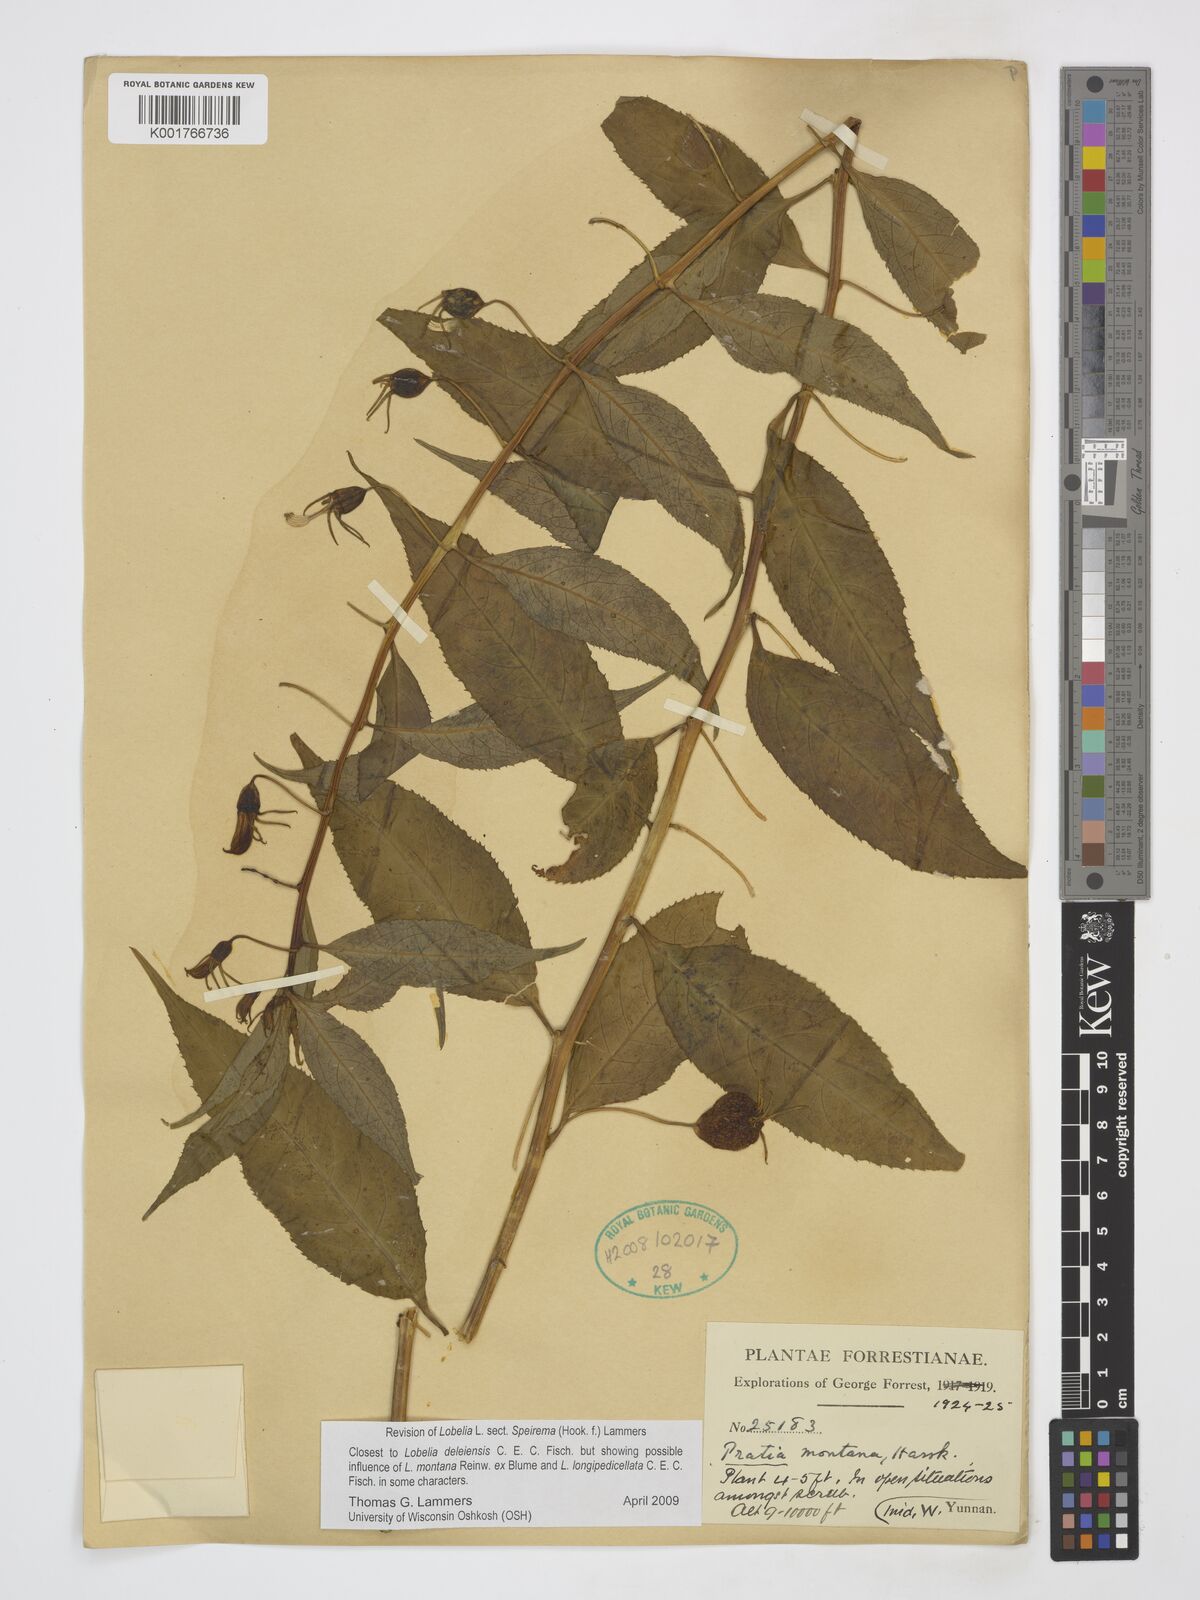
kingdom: Plantae
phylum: Tracheophyta
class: Magnoliopsida
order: Asterales
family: Campanulaceae
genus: Lobelia
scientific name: Lobelia deleiensis
